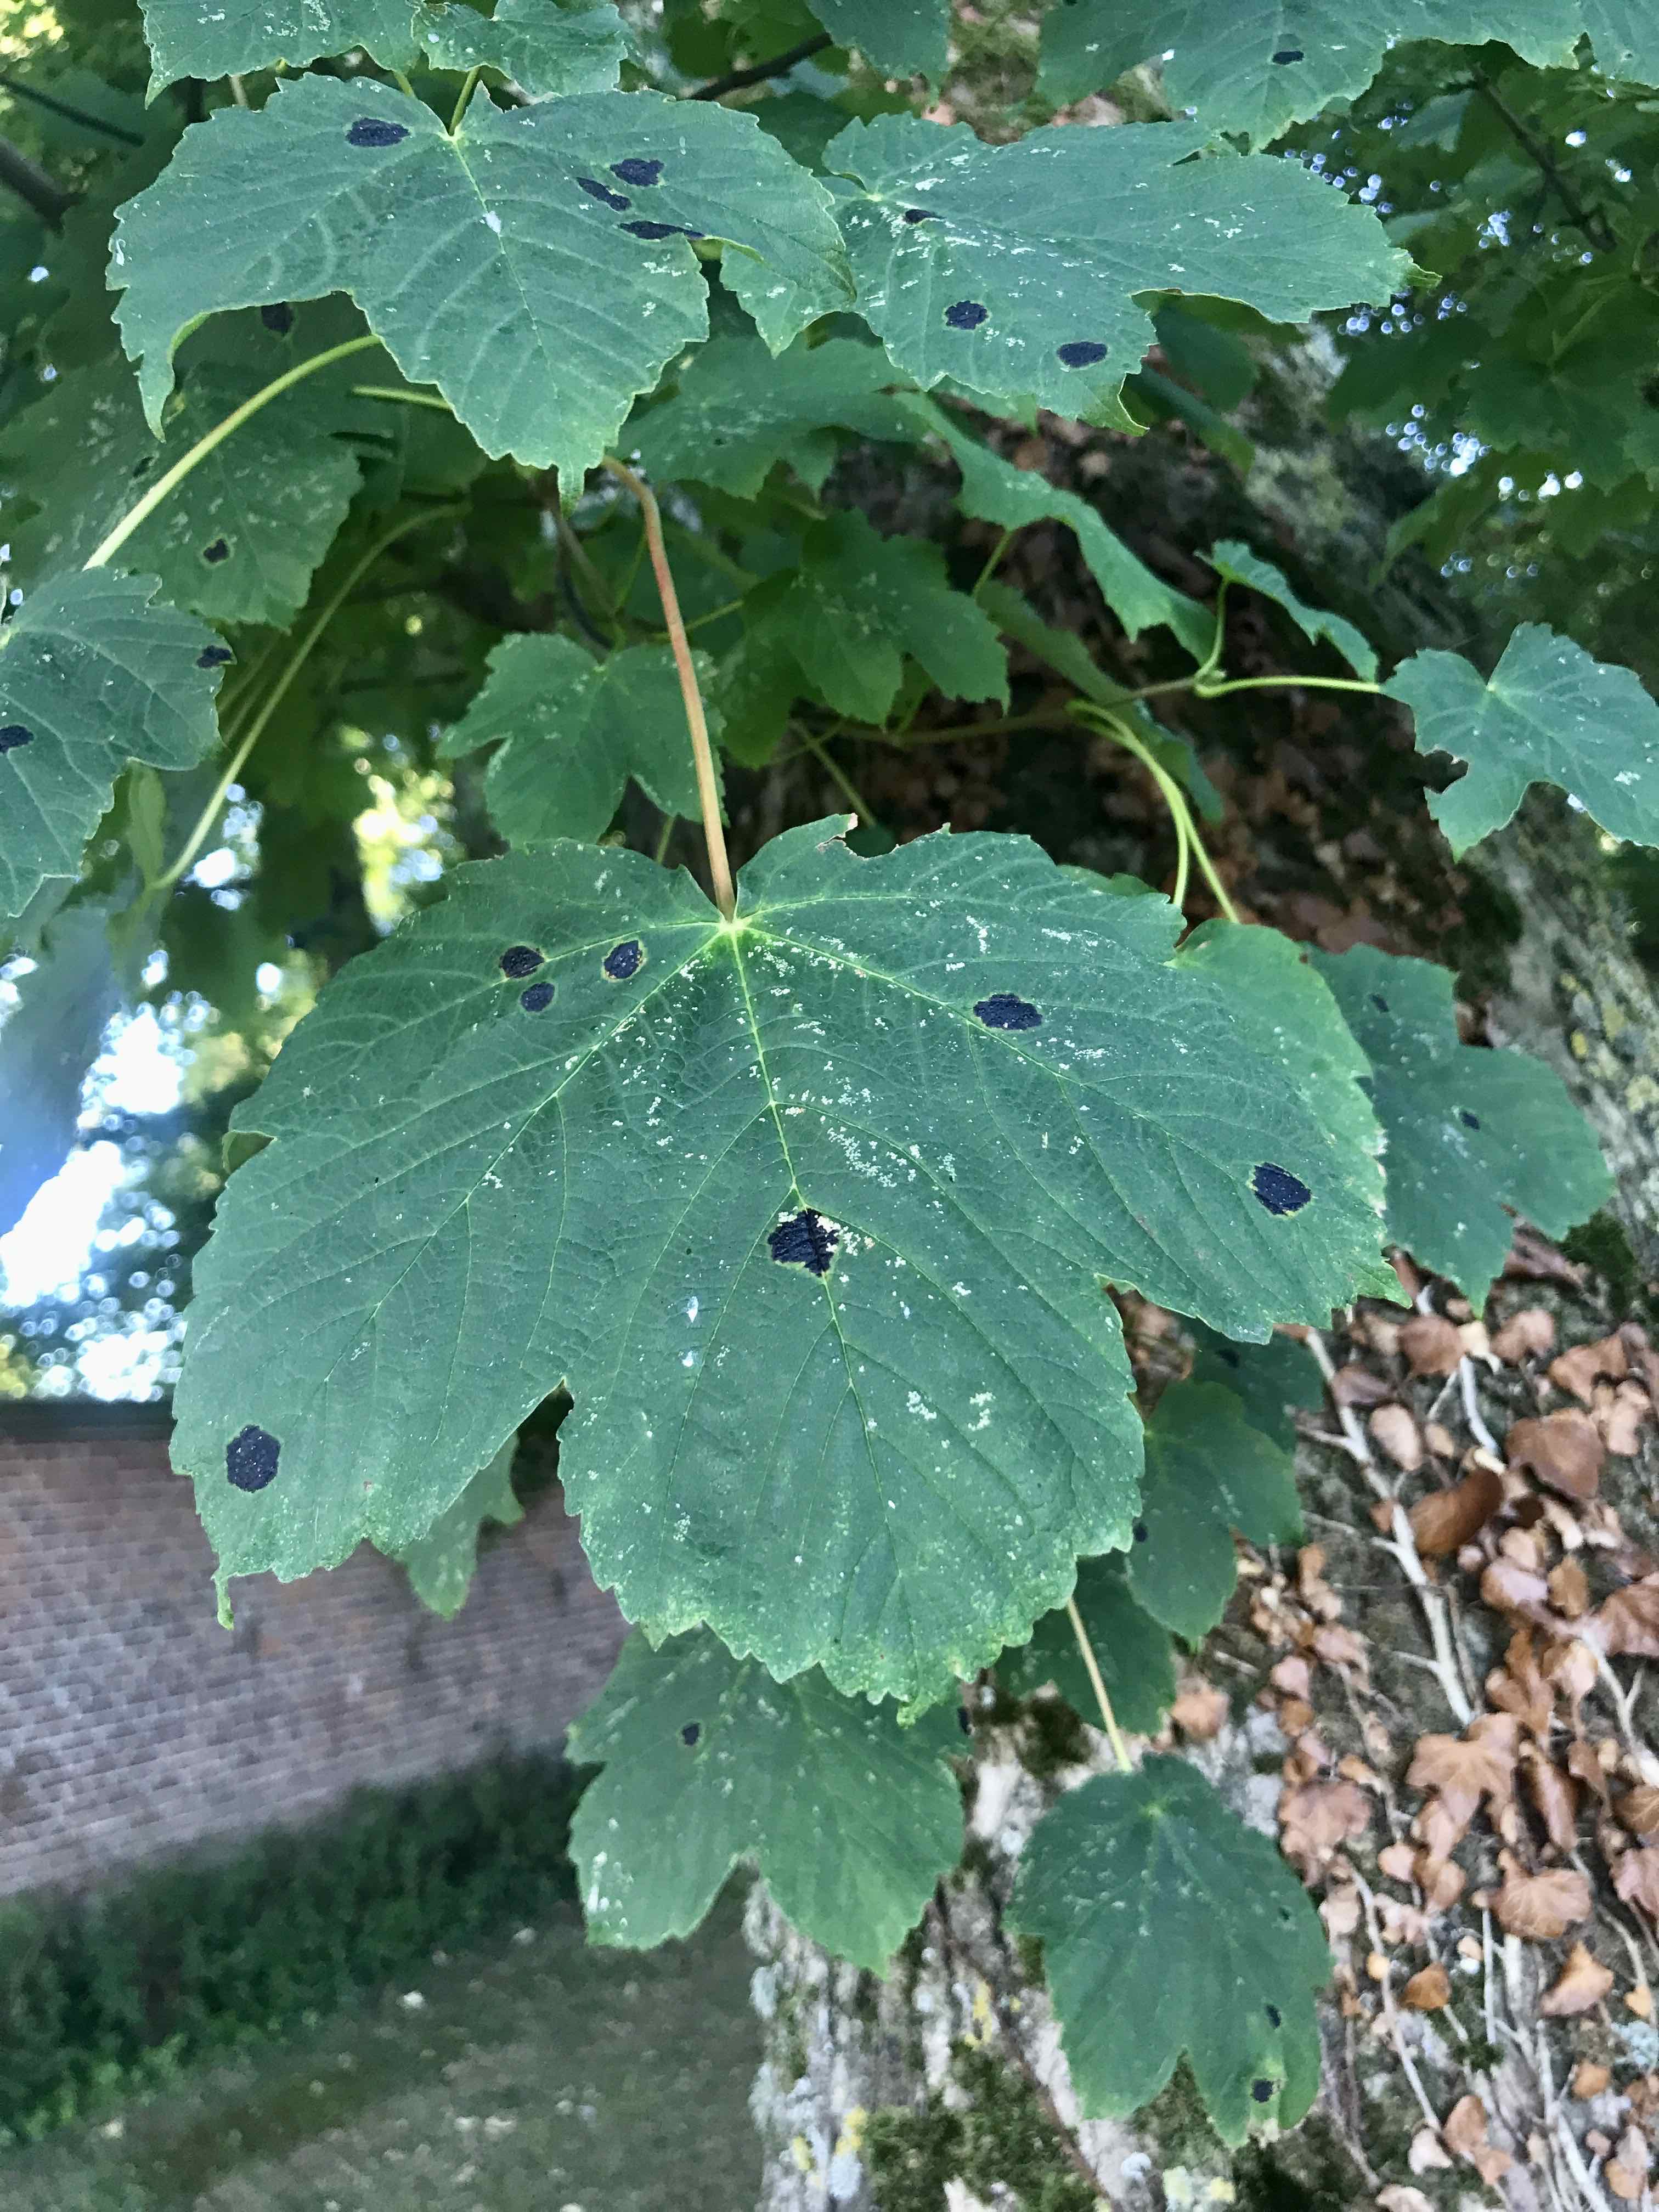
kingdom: Fungi
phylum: Ascomycota
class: Leotiomycetes
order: Rhytismatales
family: Rhytismataceae
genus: Rhytisma
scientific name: Rhytisma acerinum
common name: ahorn-rynkeplet
